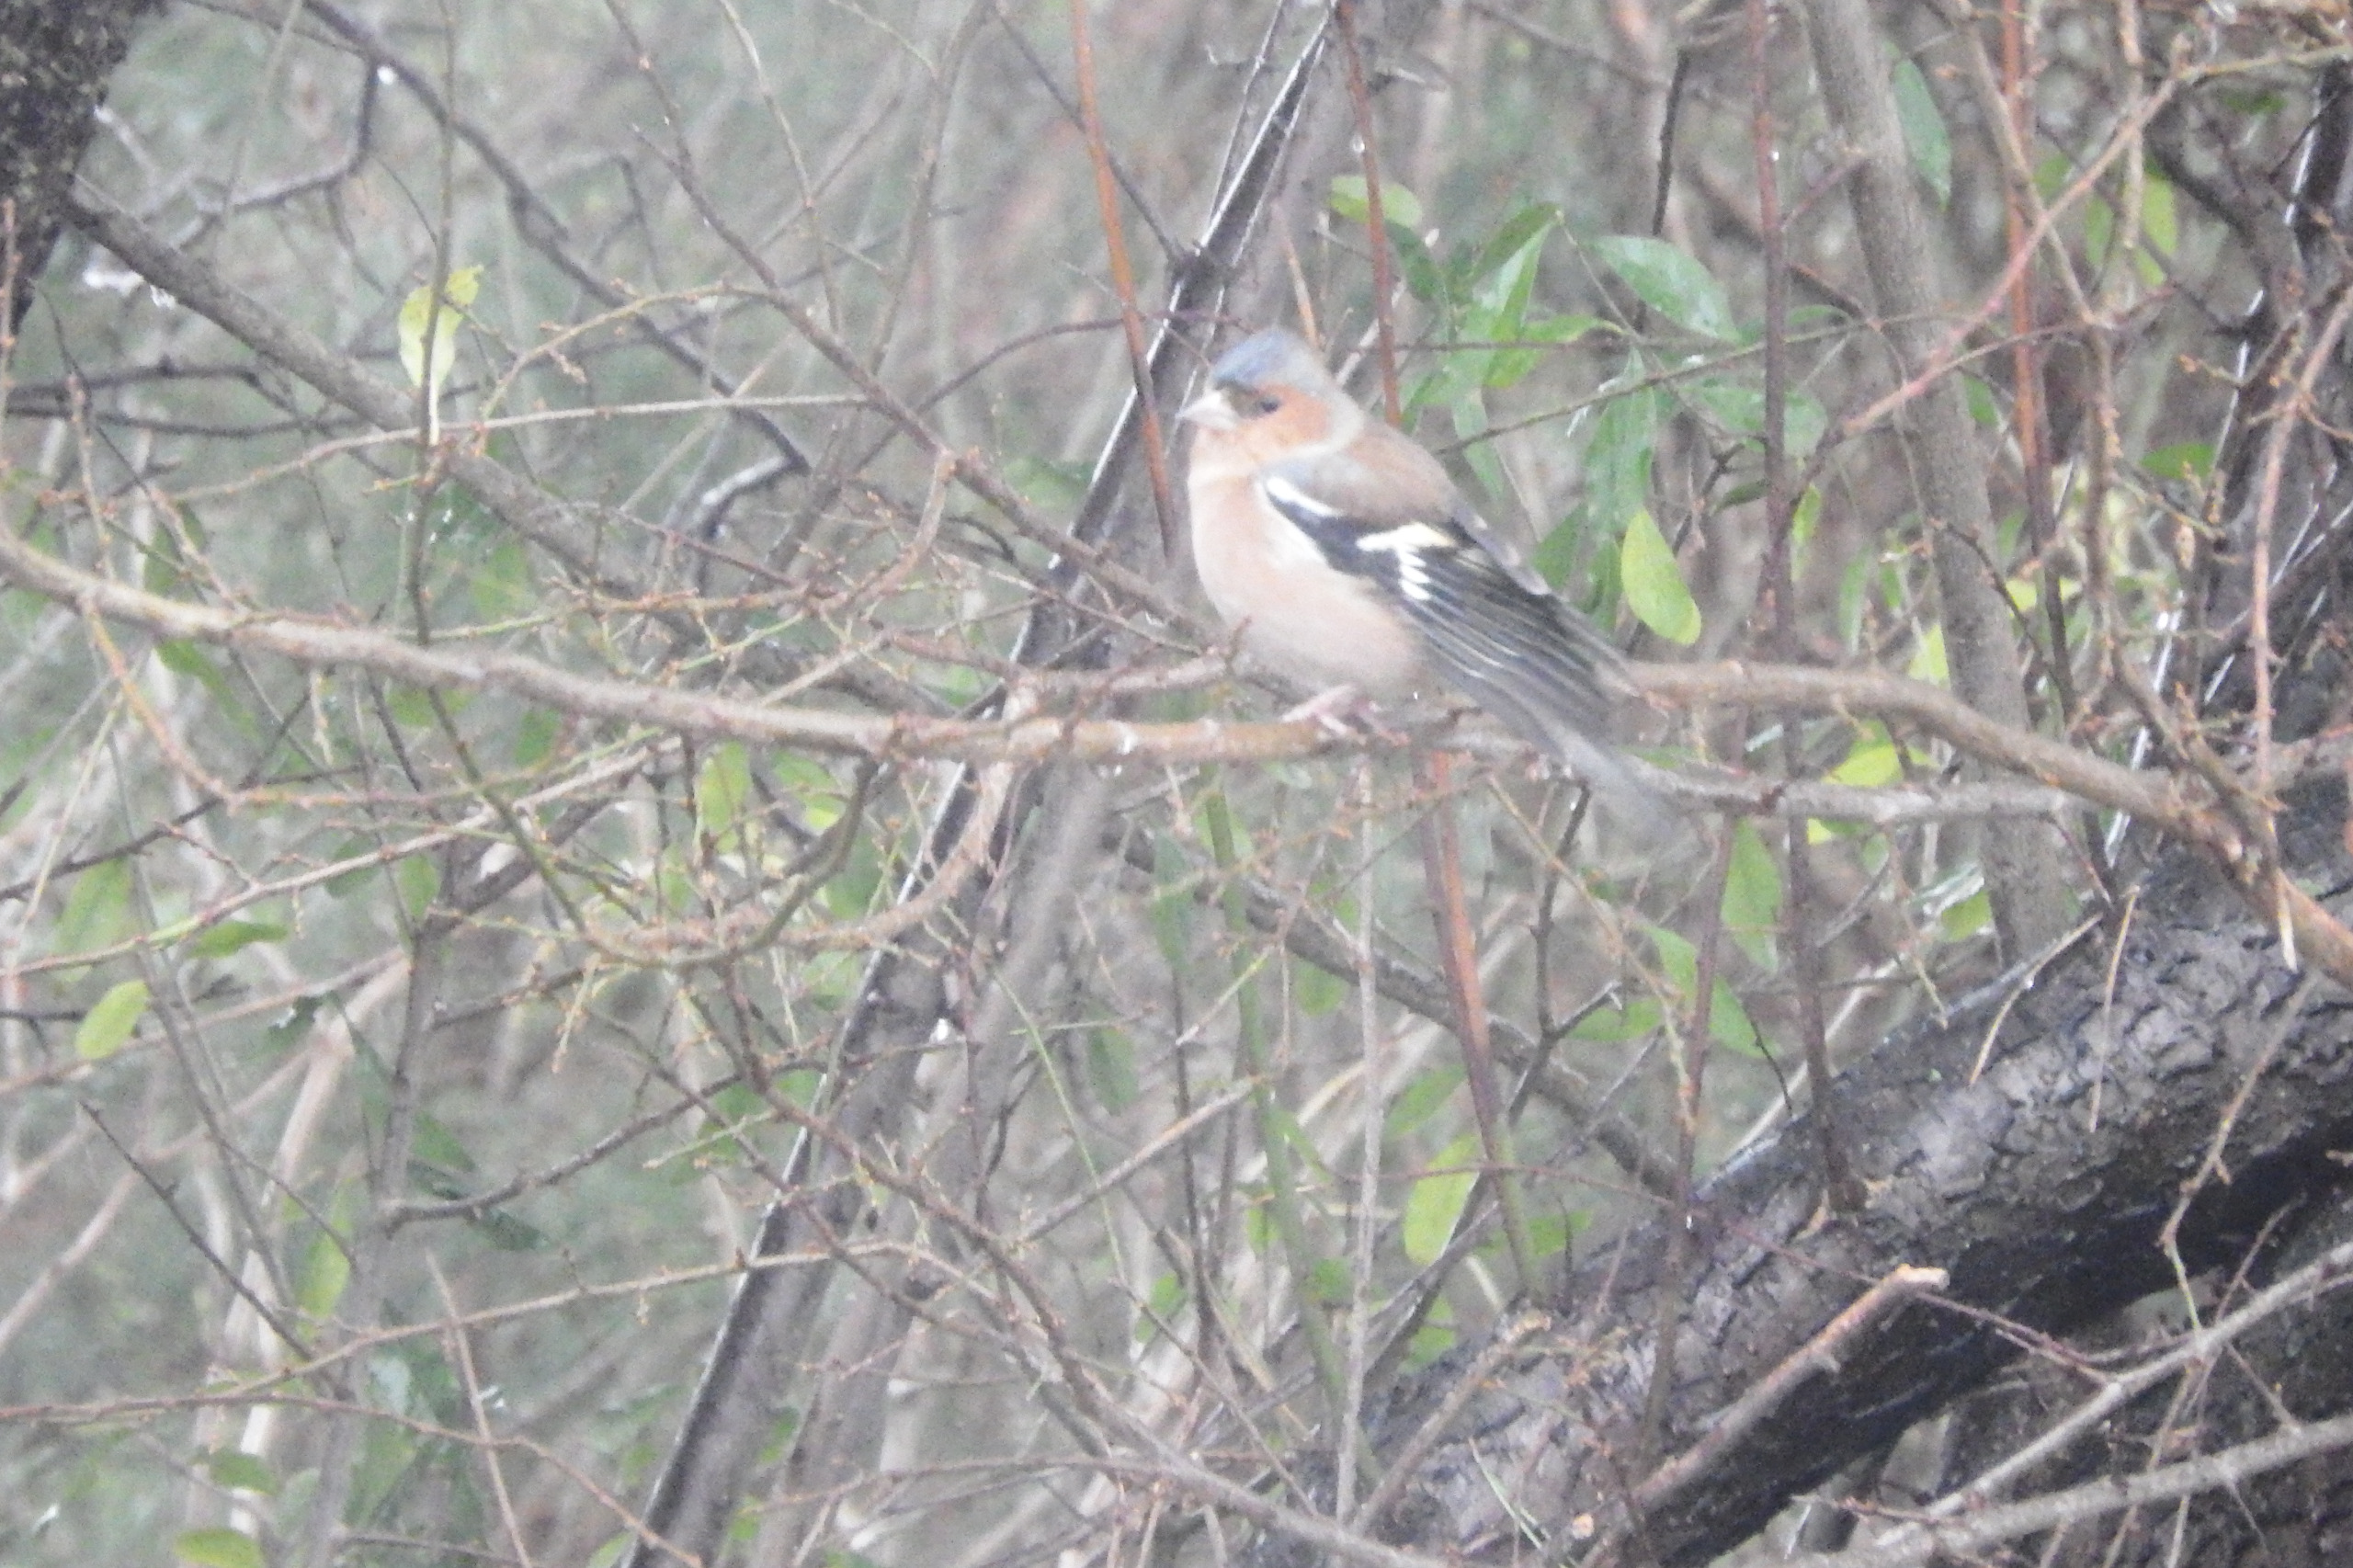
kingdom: Animalia
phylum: Chordata
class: Aves
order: Passeriformes
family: Fringillidae
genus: Fringilla
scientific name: Fringilla coelebs
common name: Bogfinke
